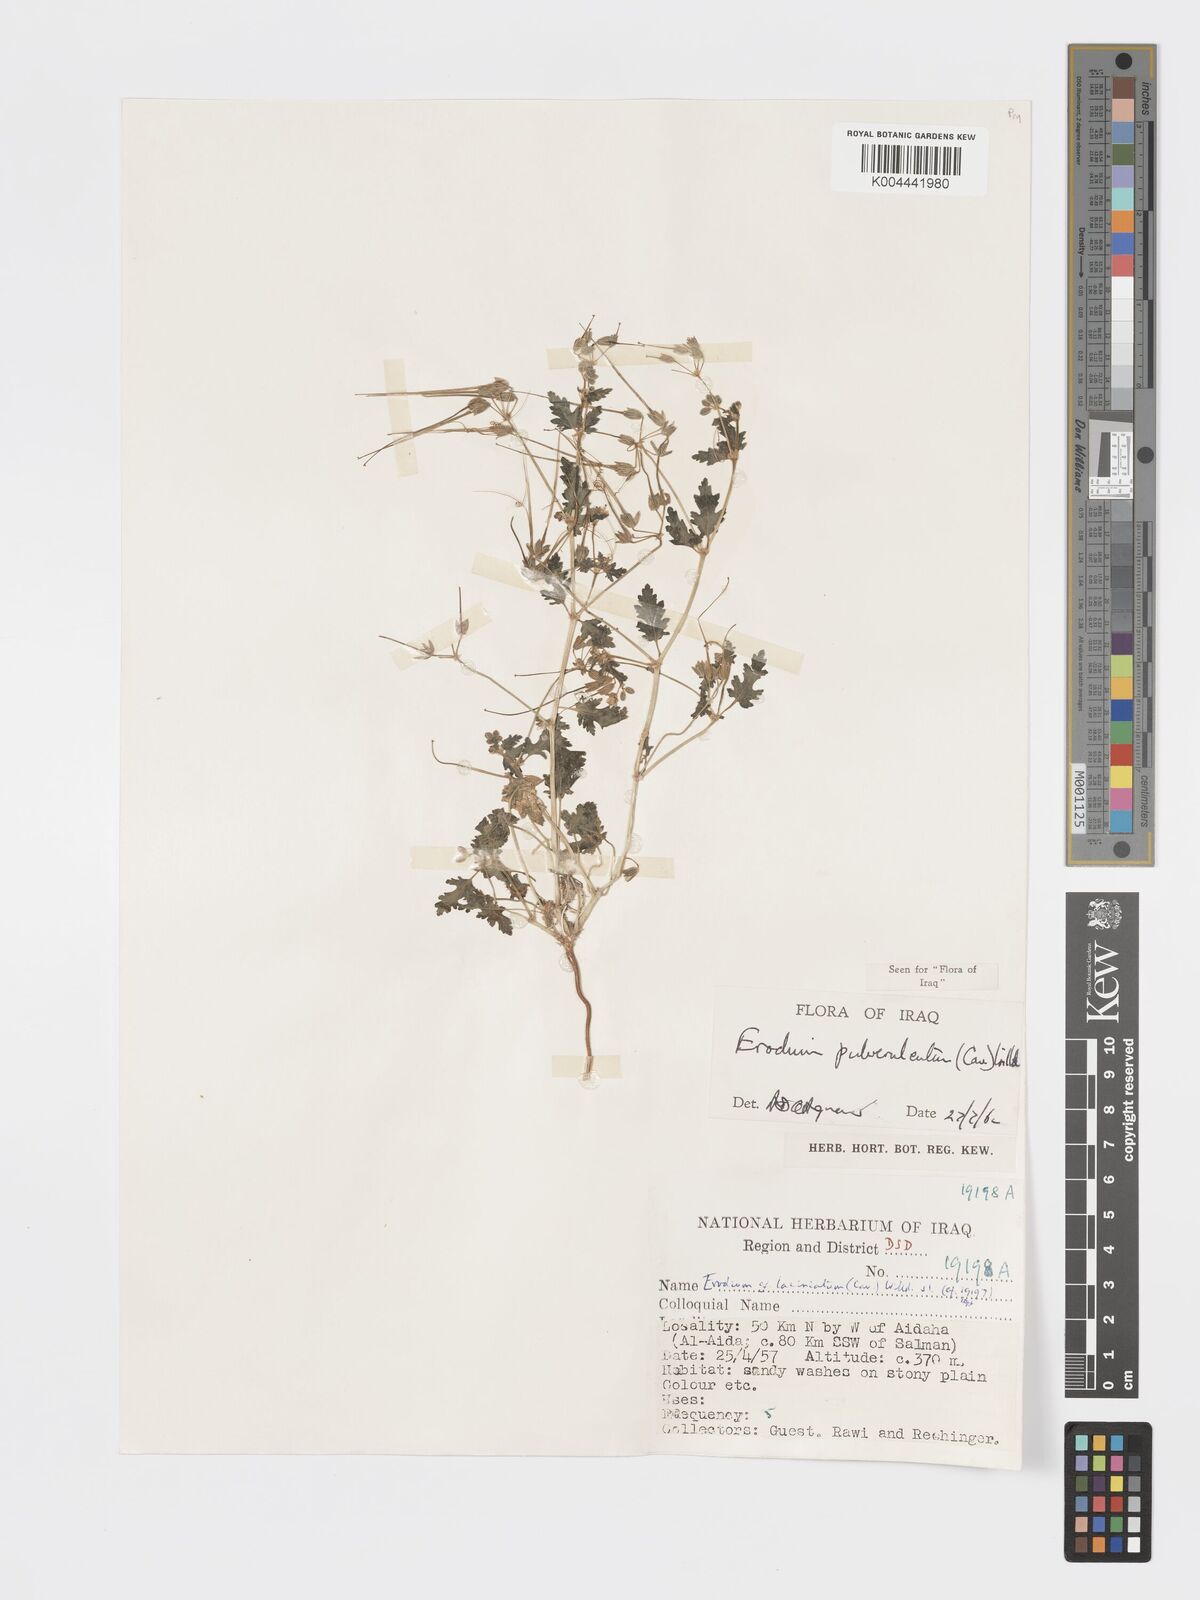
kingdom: Plantae
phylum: Tracheophyta
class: Magnoliopsida
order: Geraniales
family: Geraniaceae
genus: Erodium
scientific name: Erodium laciniatum
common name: Cutleaf stork's bill
